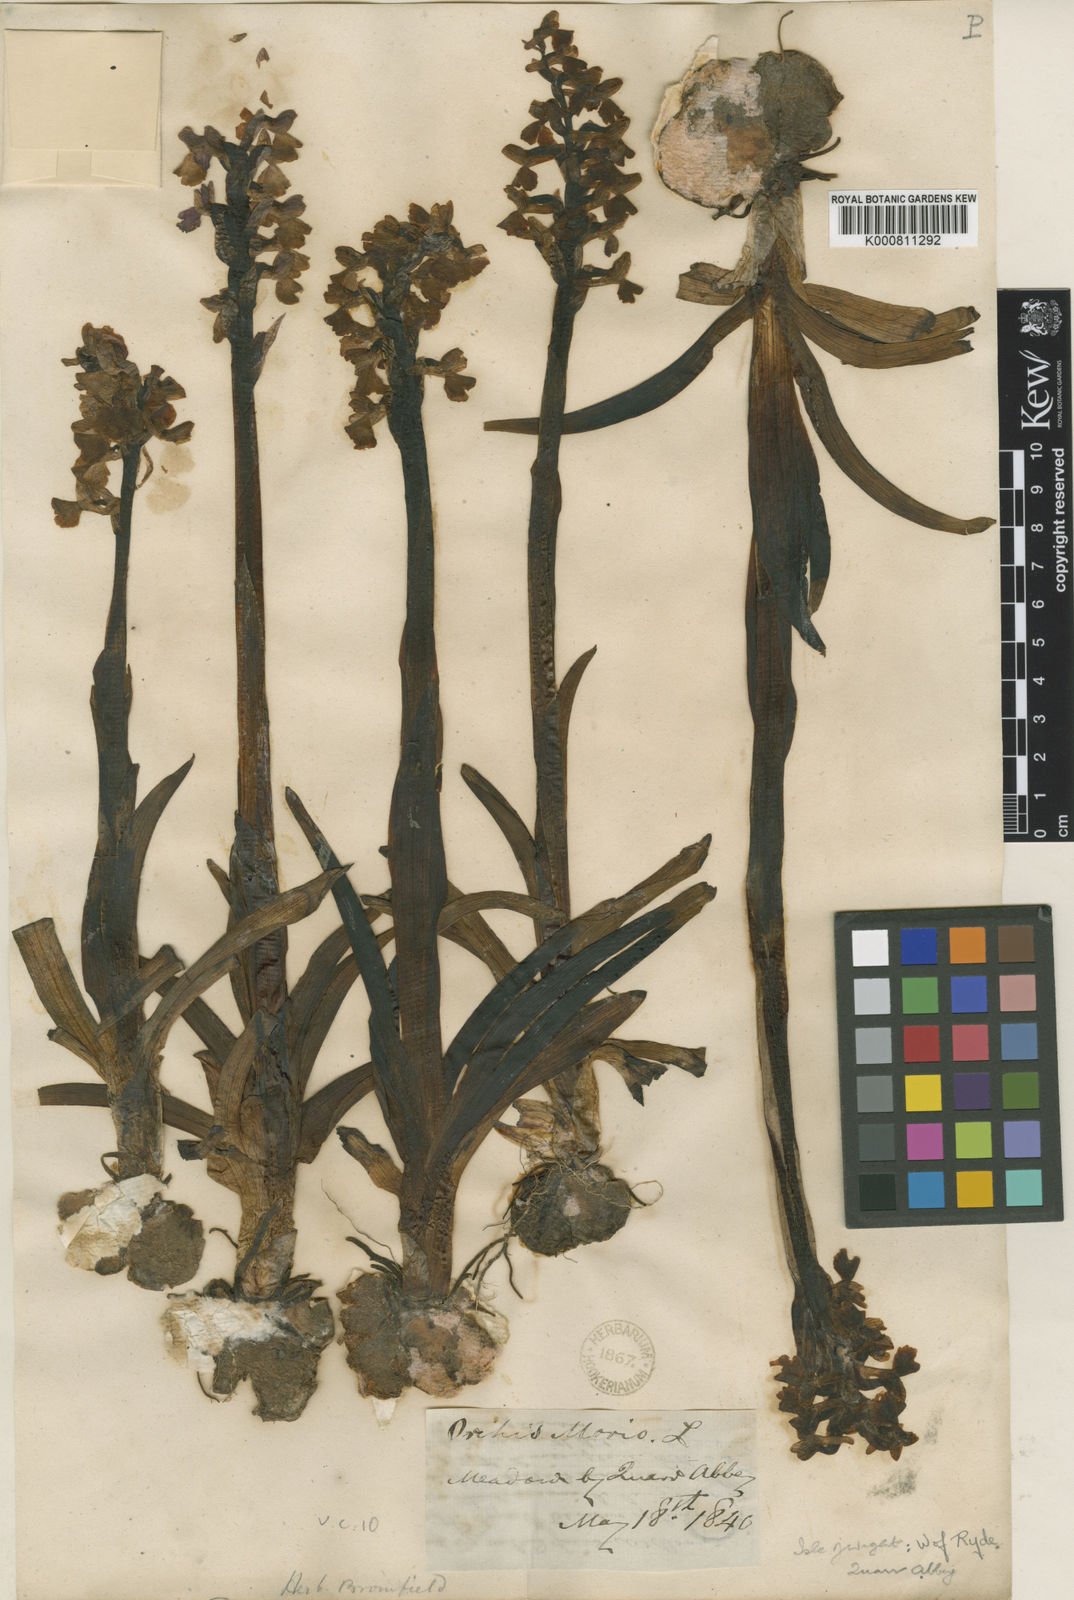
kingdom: Plantae
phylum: Tracheophyta
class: Liliopsida
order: Asparagales
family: Orchidaceae
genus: Anacamptis
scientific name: Anacamptis morio
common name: Green-winged orchid
